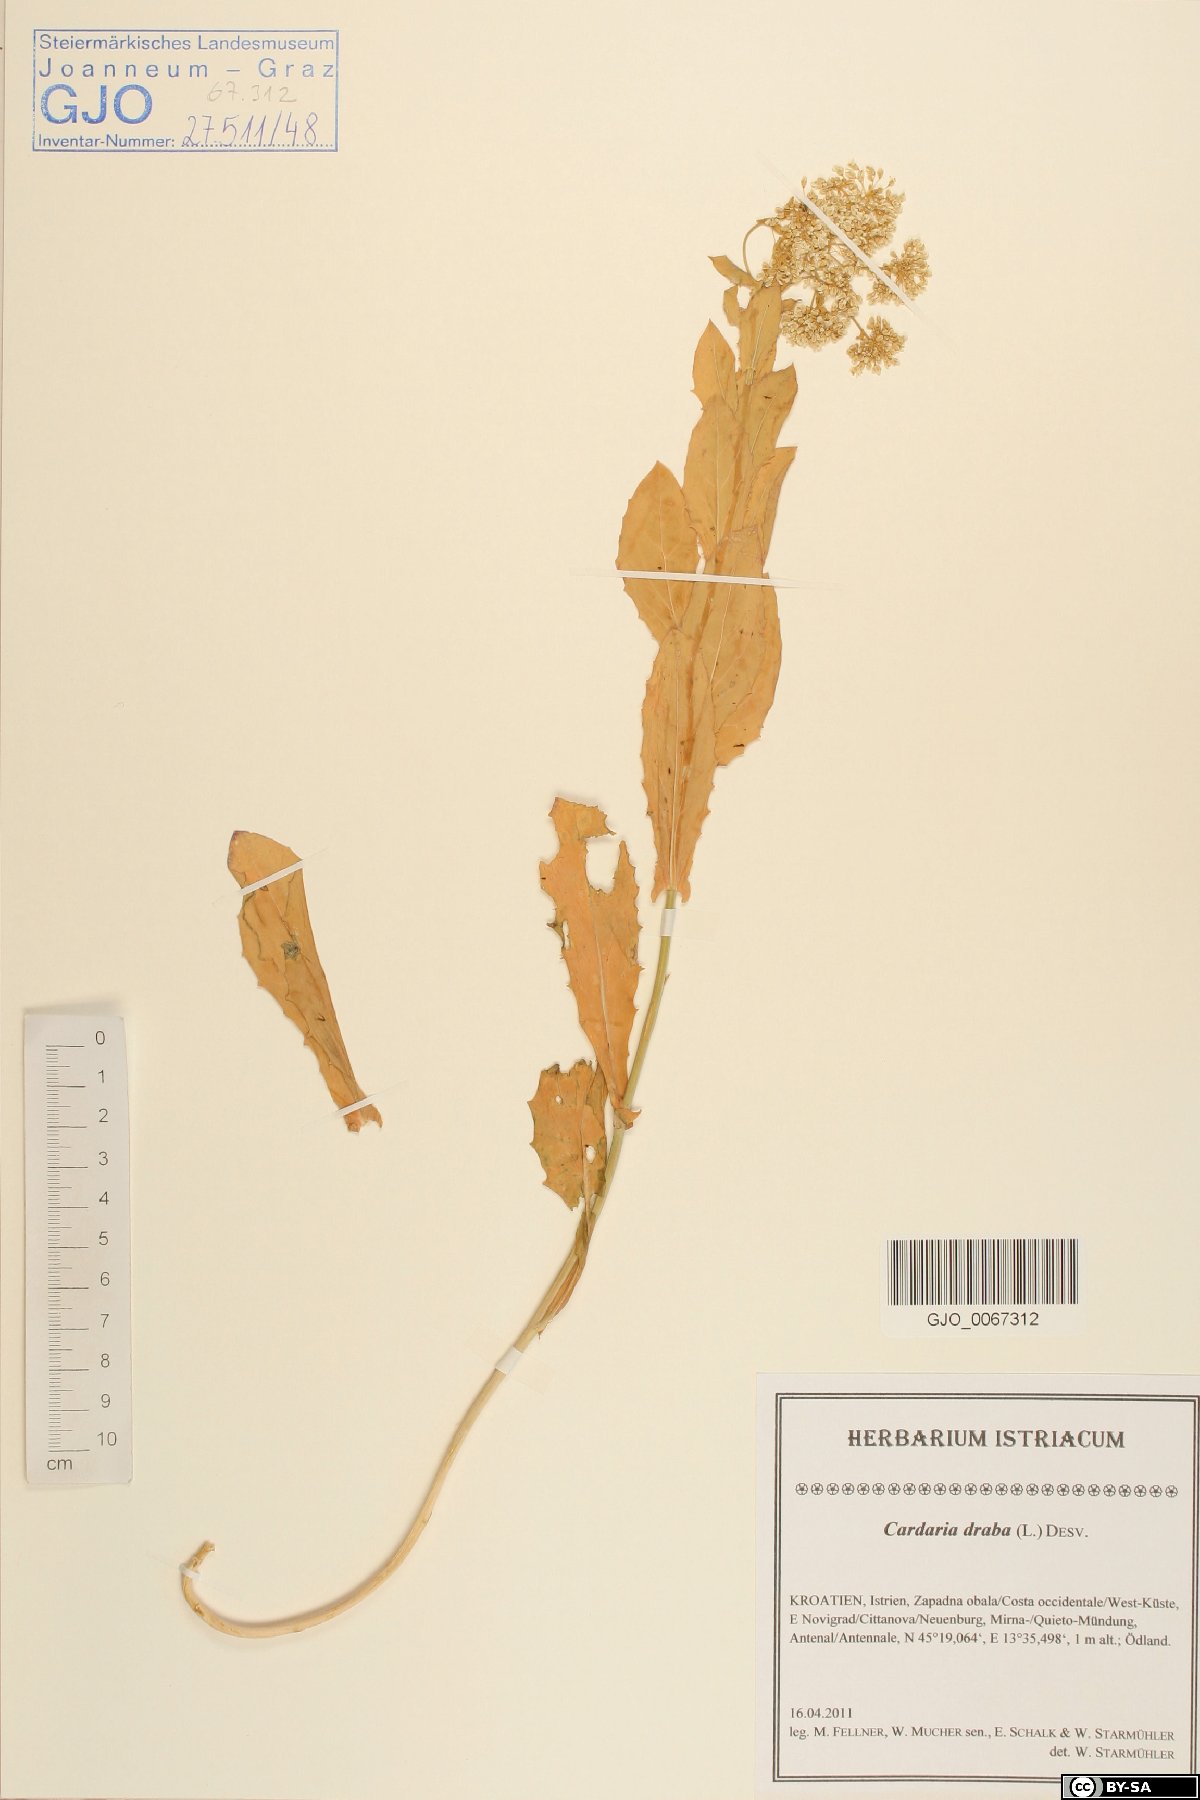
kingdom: Plantae
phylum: Tracheophyta
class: Magnoliopsida
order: Brassicales
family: Brassicaceae
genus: Lepidium
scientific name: Lepidium draba
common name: Hoary cress
